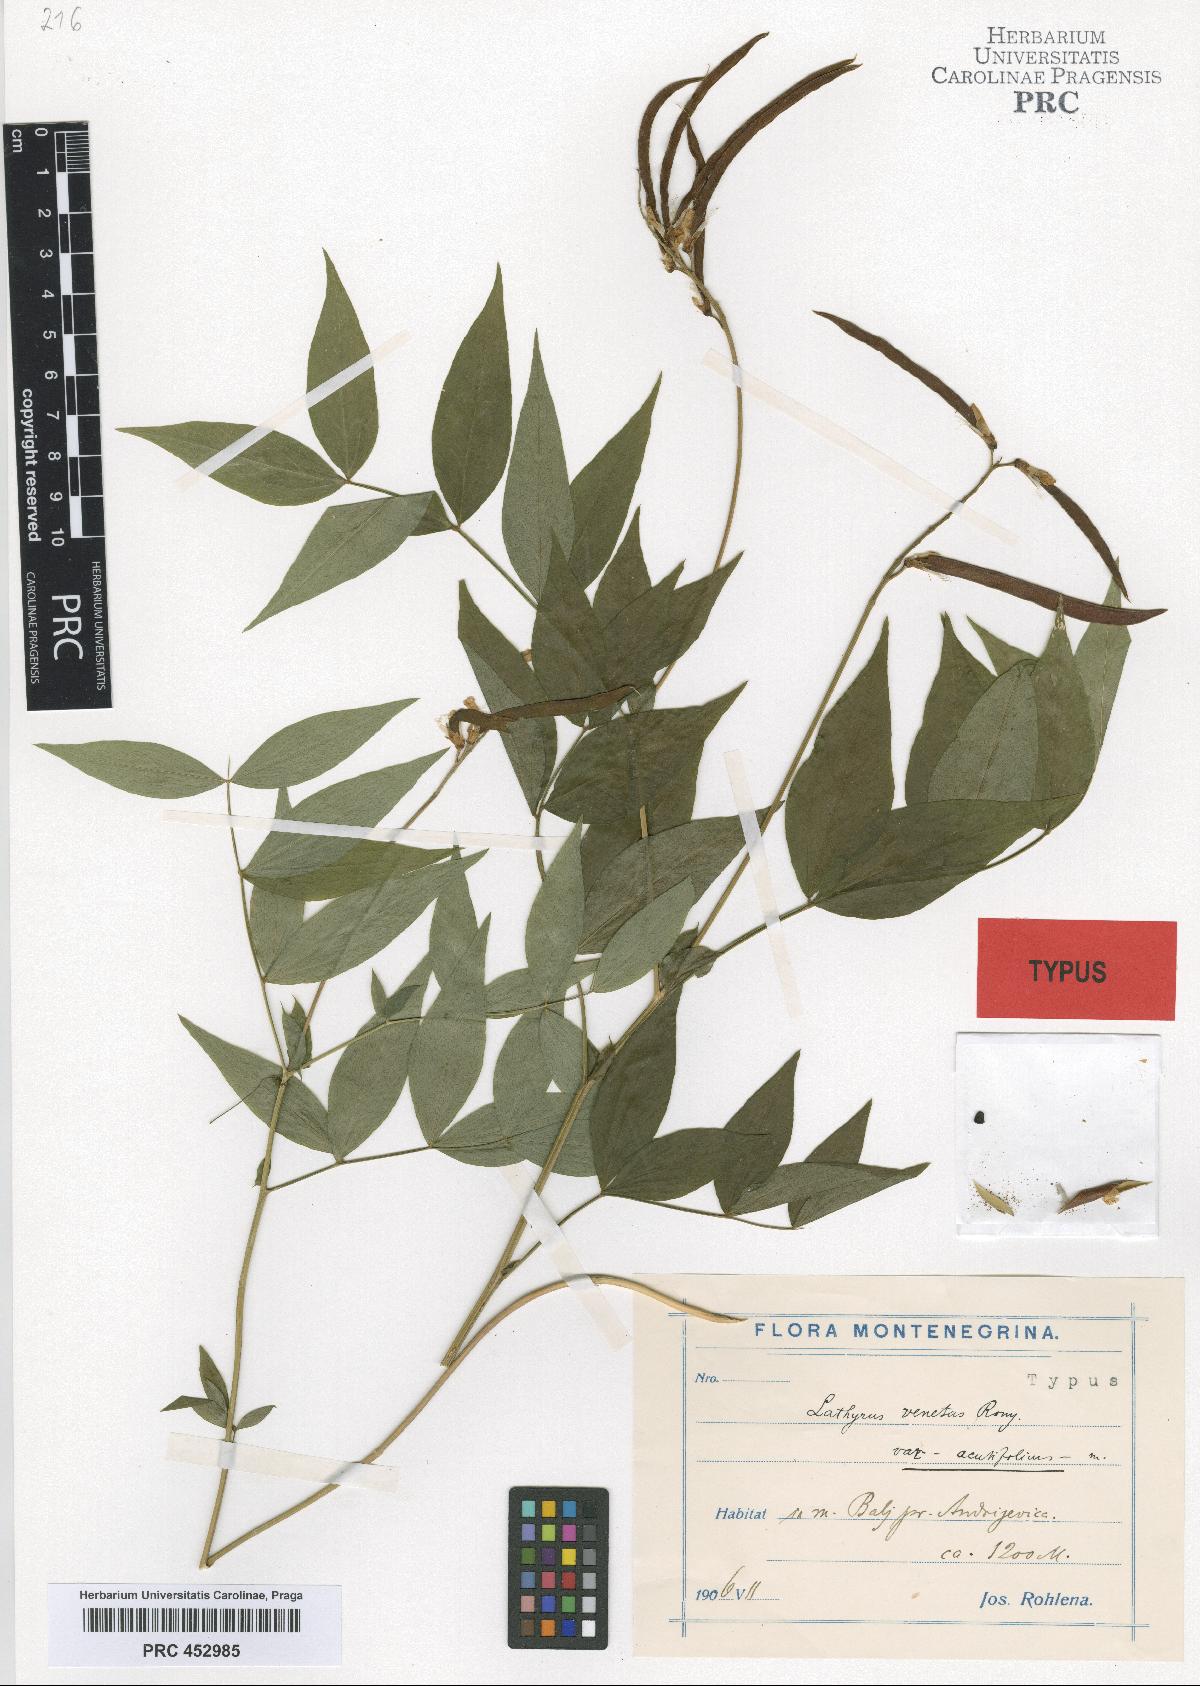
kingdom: Plantae
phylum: Tracheophyta
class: Magnoliopsida
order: Fabales
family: Fabaceae
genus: Lathyrus
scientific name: Lathyrus venetus
